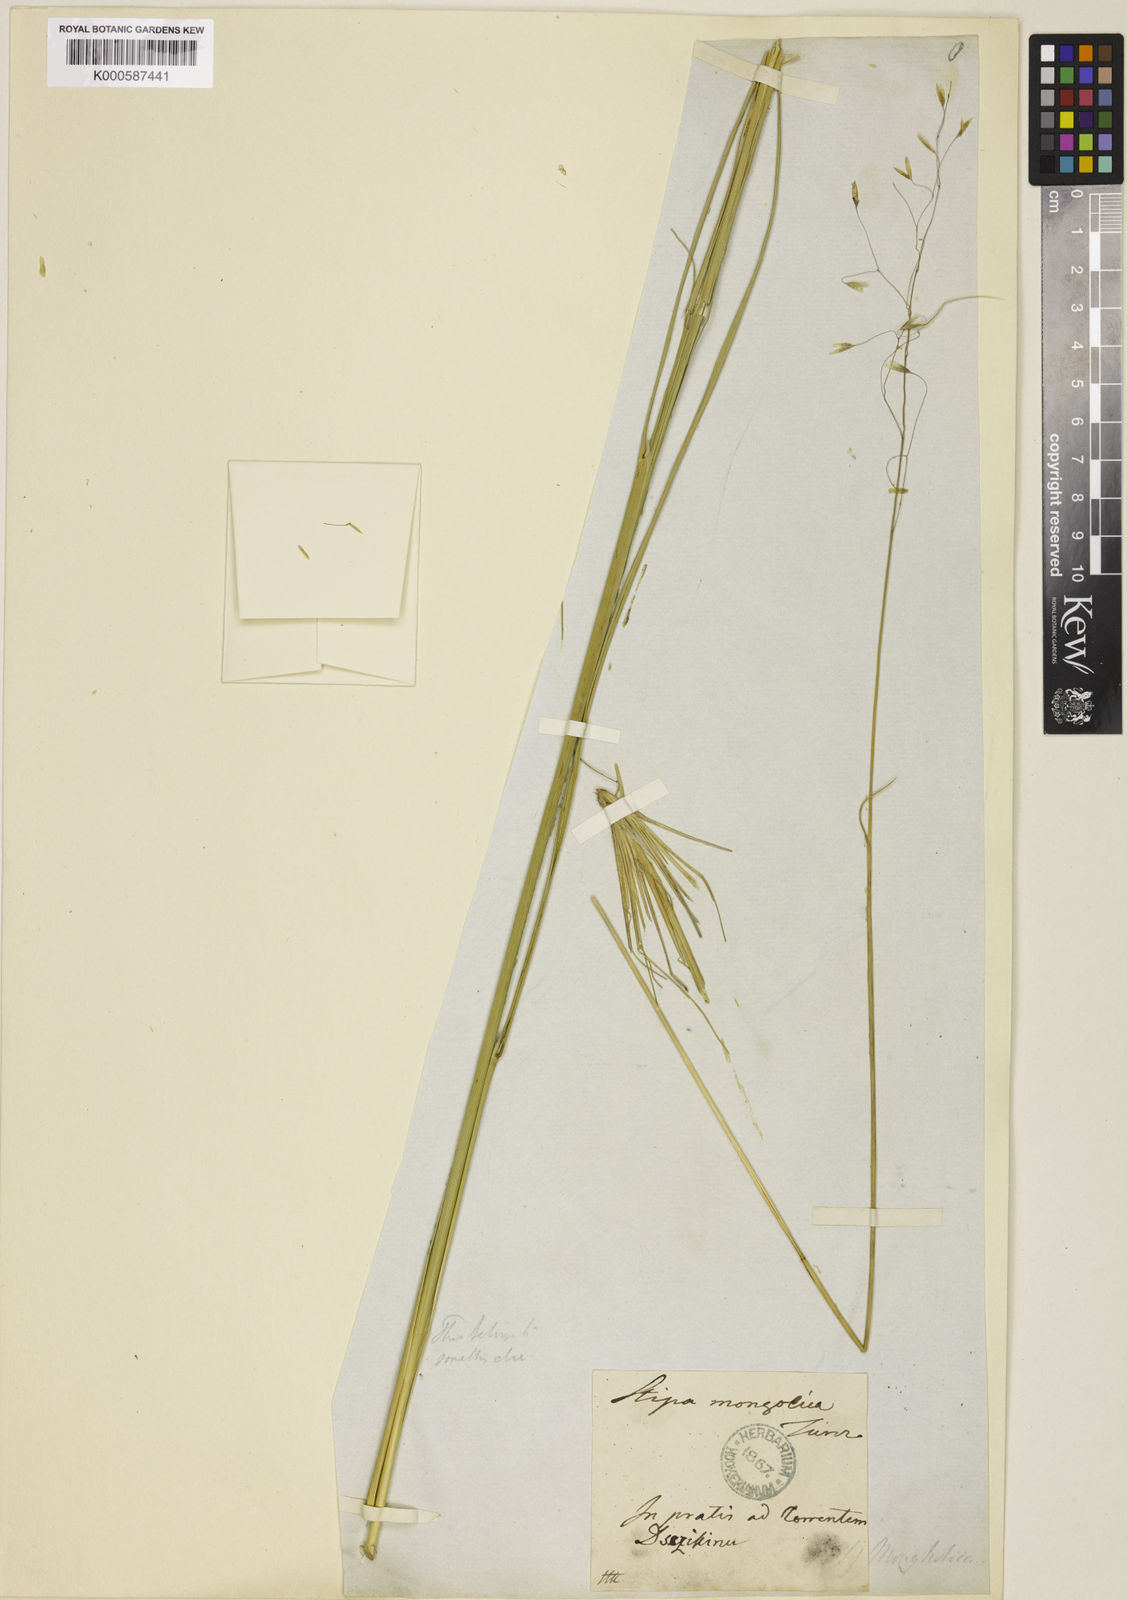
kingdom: Plantae
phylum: Tracheophyta
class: Liliopsida
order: Poales
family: Poaceae
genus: Ptilagrostis
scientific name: Ptilagrostis mongholica
